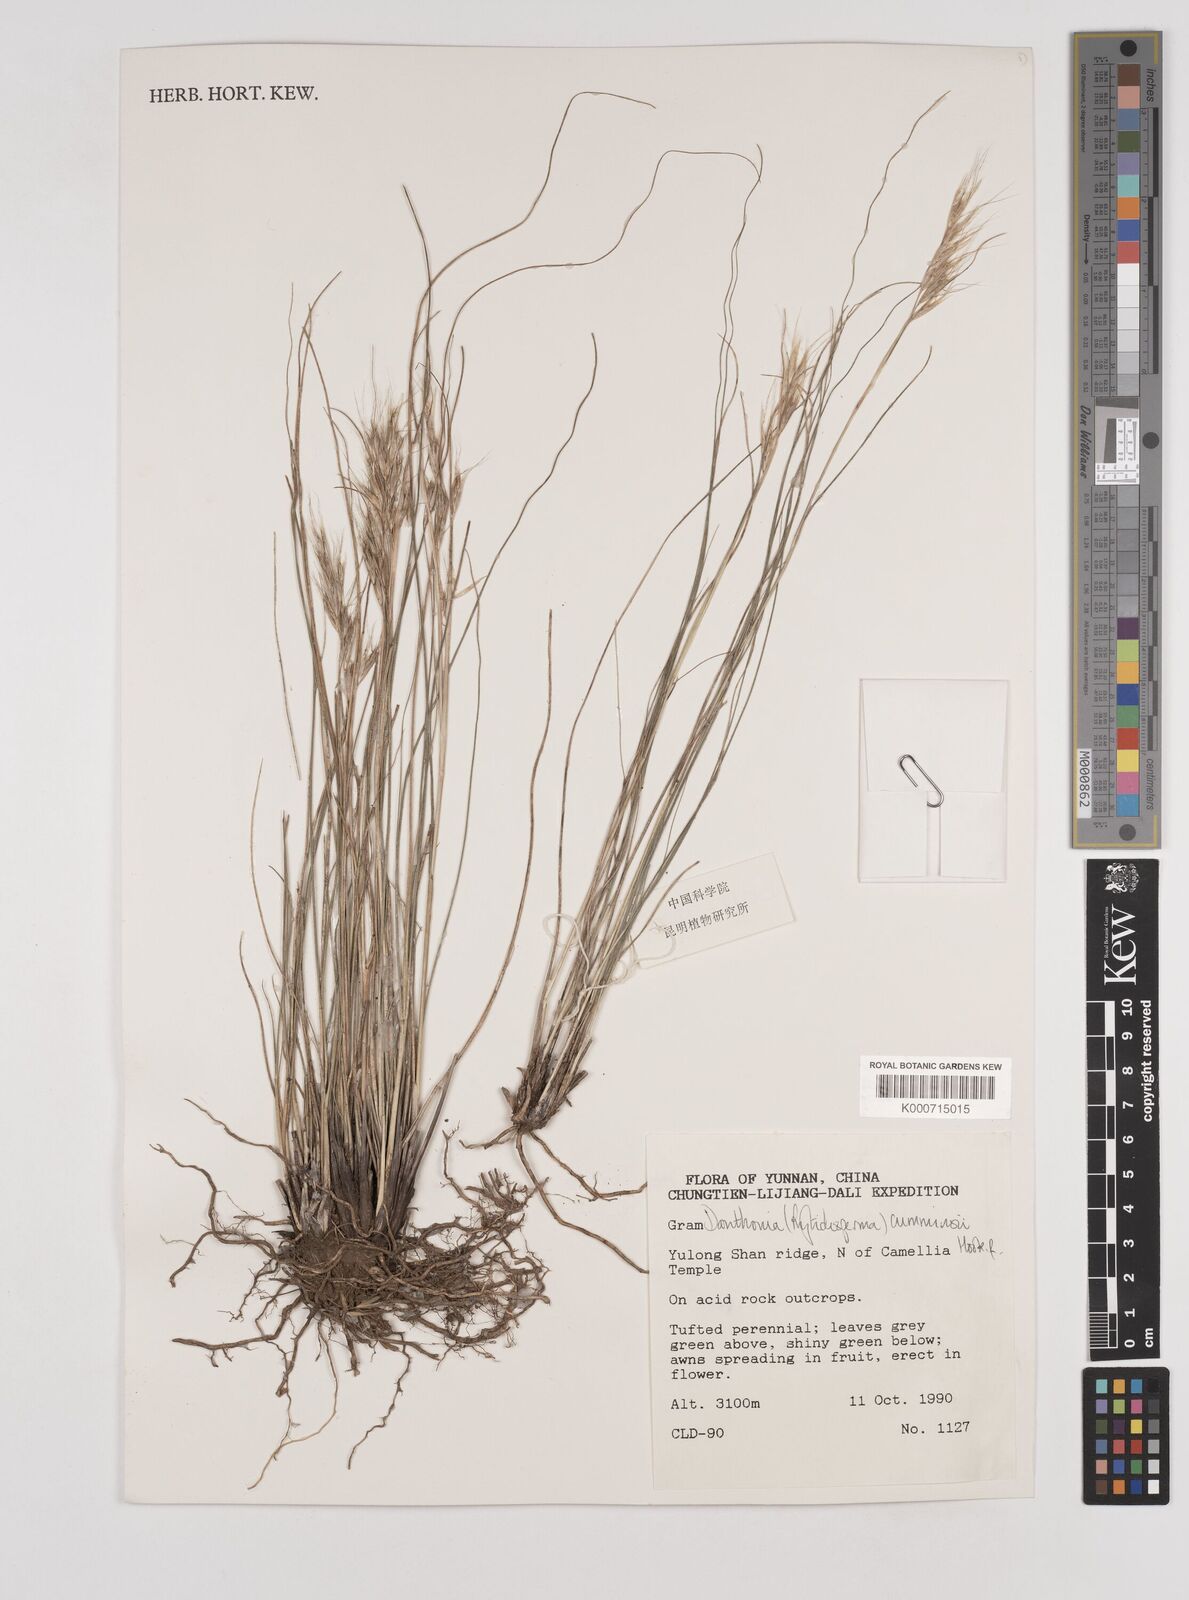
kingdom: Plantae
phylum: Tracheophyta
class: Liliopsida
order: Poales
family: Poaceae
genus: Rytidosperma
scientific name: Rytidosperma
